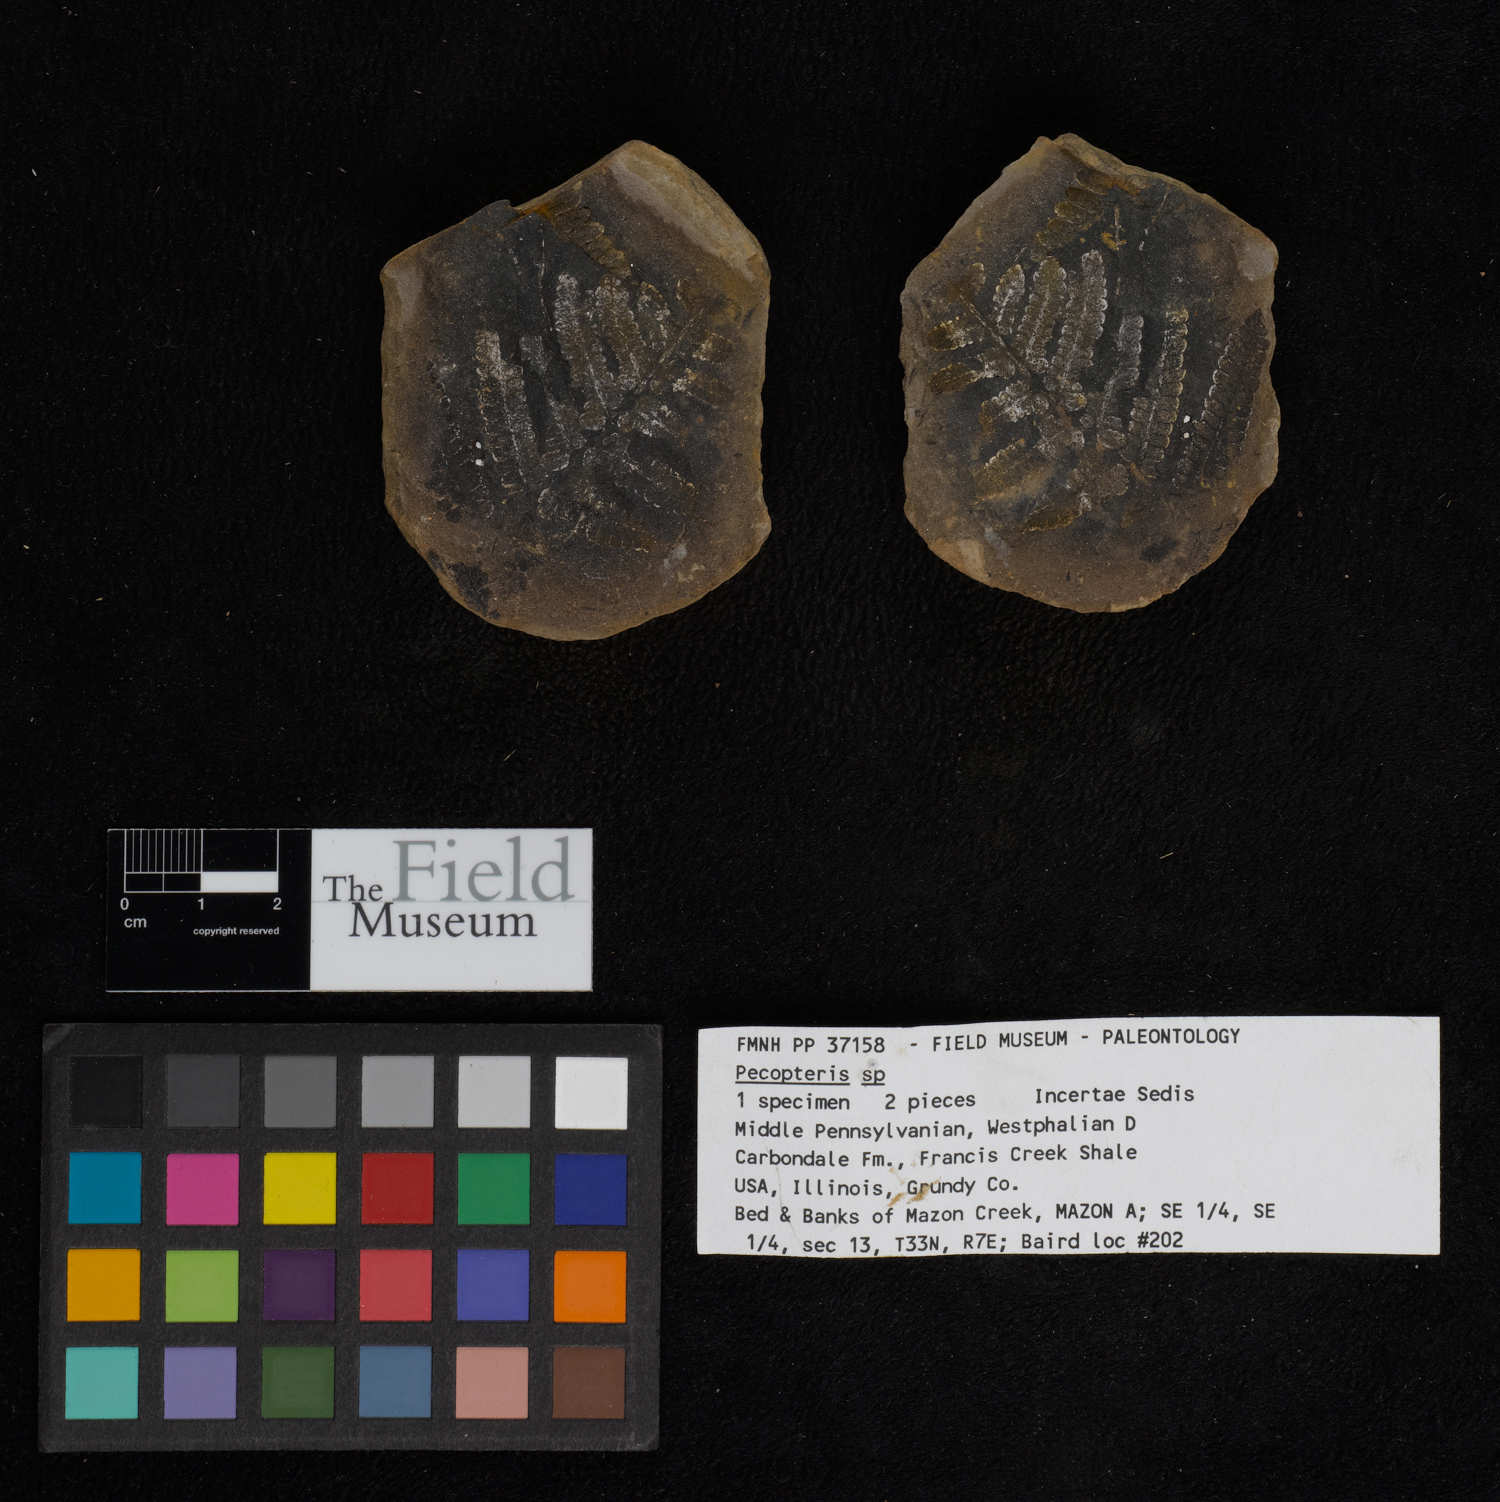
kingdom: Plantae
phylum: Tracheophyta
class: Polypodiopsida
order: Marattiales
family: Asterothecaceae
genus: Pecopteris
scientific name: Pecopteris
